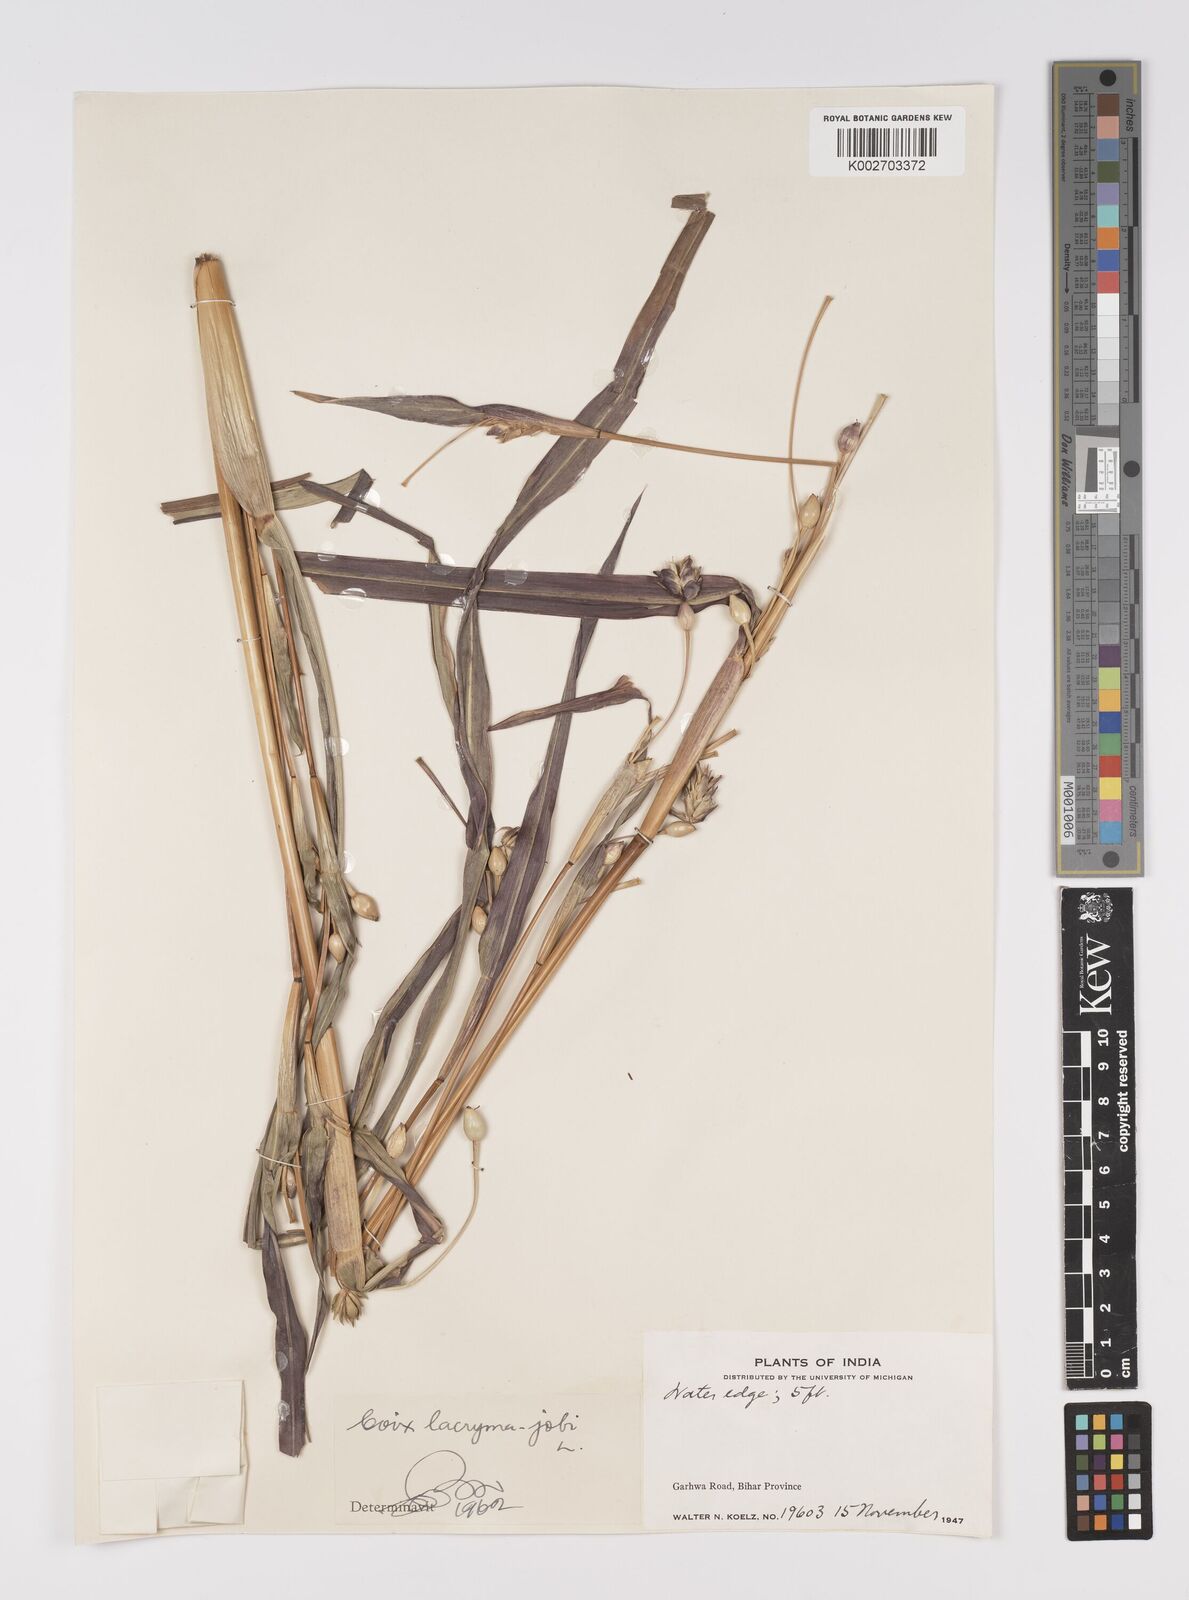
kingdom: Plantae
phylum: Tracheophyta
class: Liliopsida
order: Poales
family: Poaceae
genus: Coix
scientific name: Coix lacryma-jobi
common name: Job's tears
